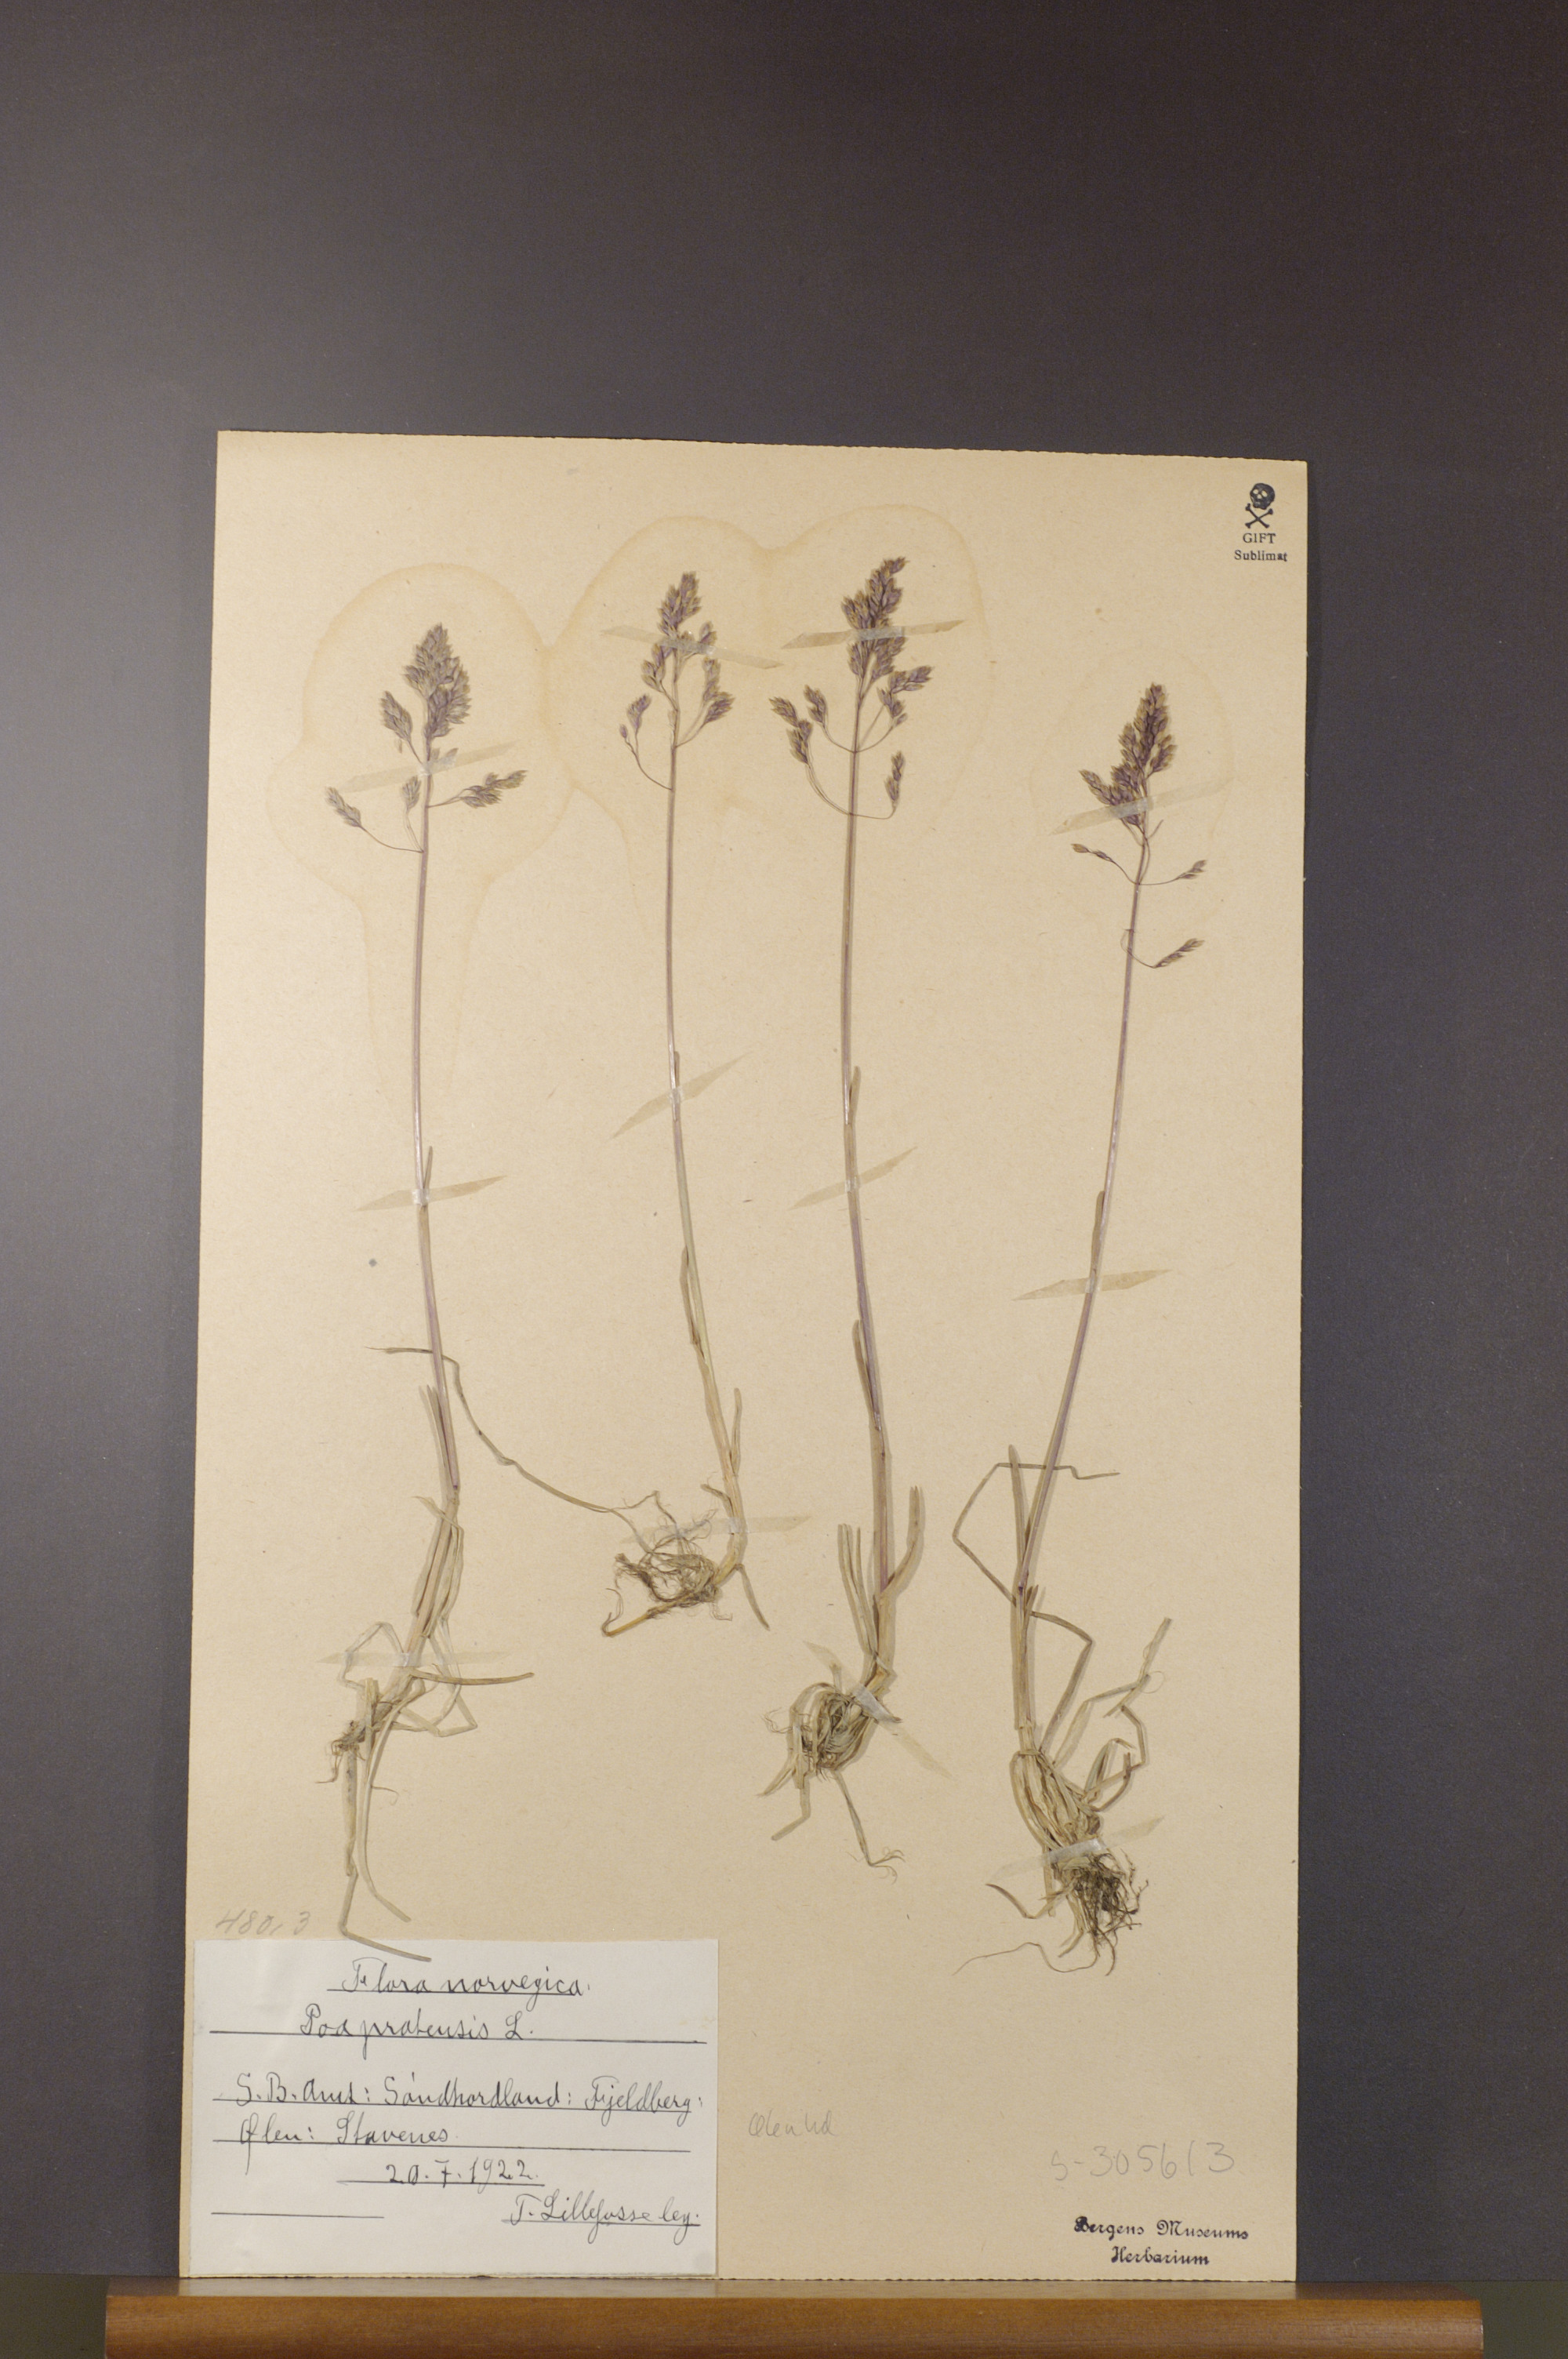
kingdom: Plantae
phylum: Tracheophyta
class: Liliopsida
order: Poales
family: Poaceae
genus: Poa
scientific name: Poa pratensis
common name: Kentucky bluegrass
